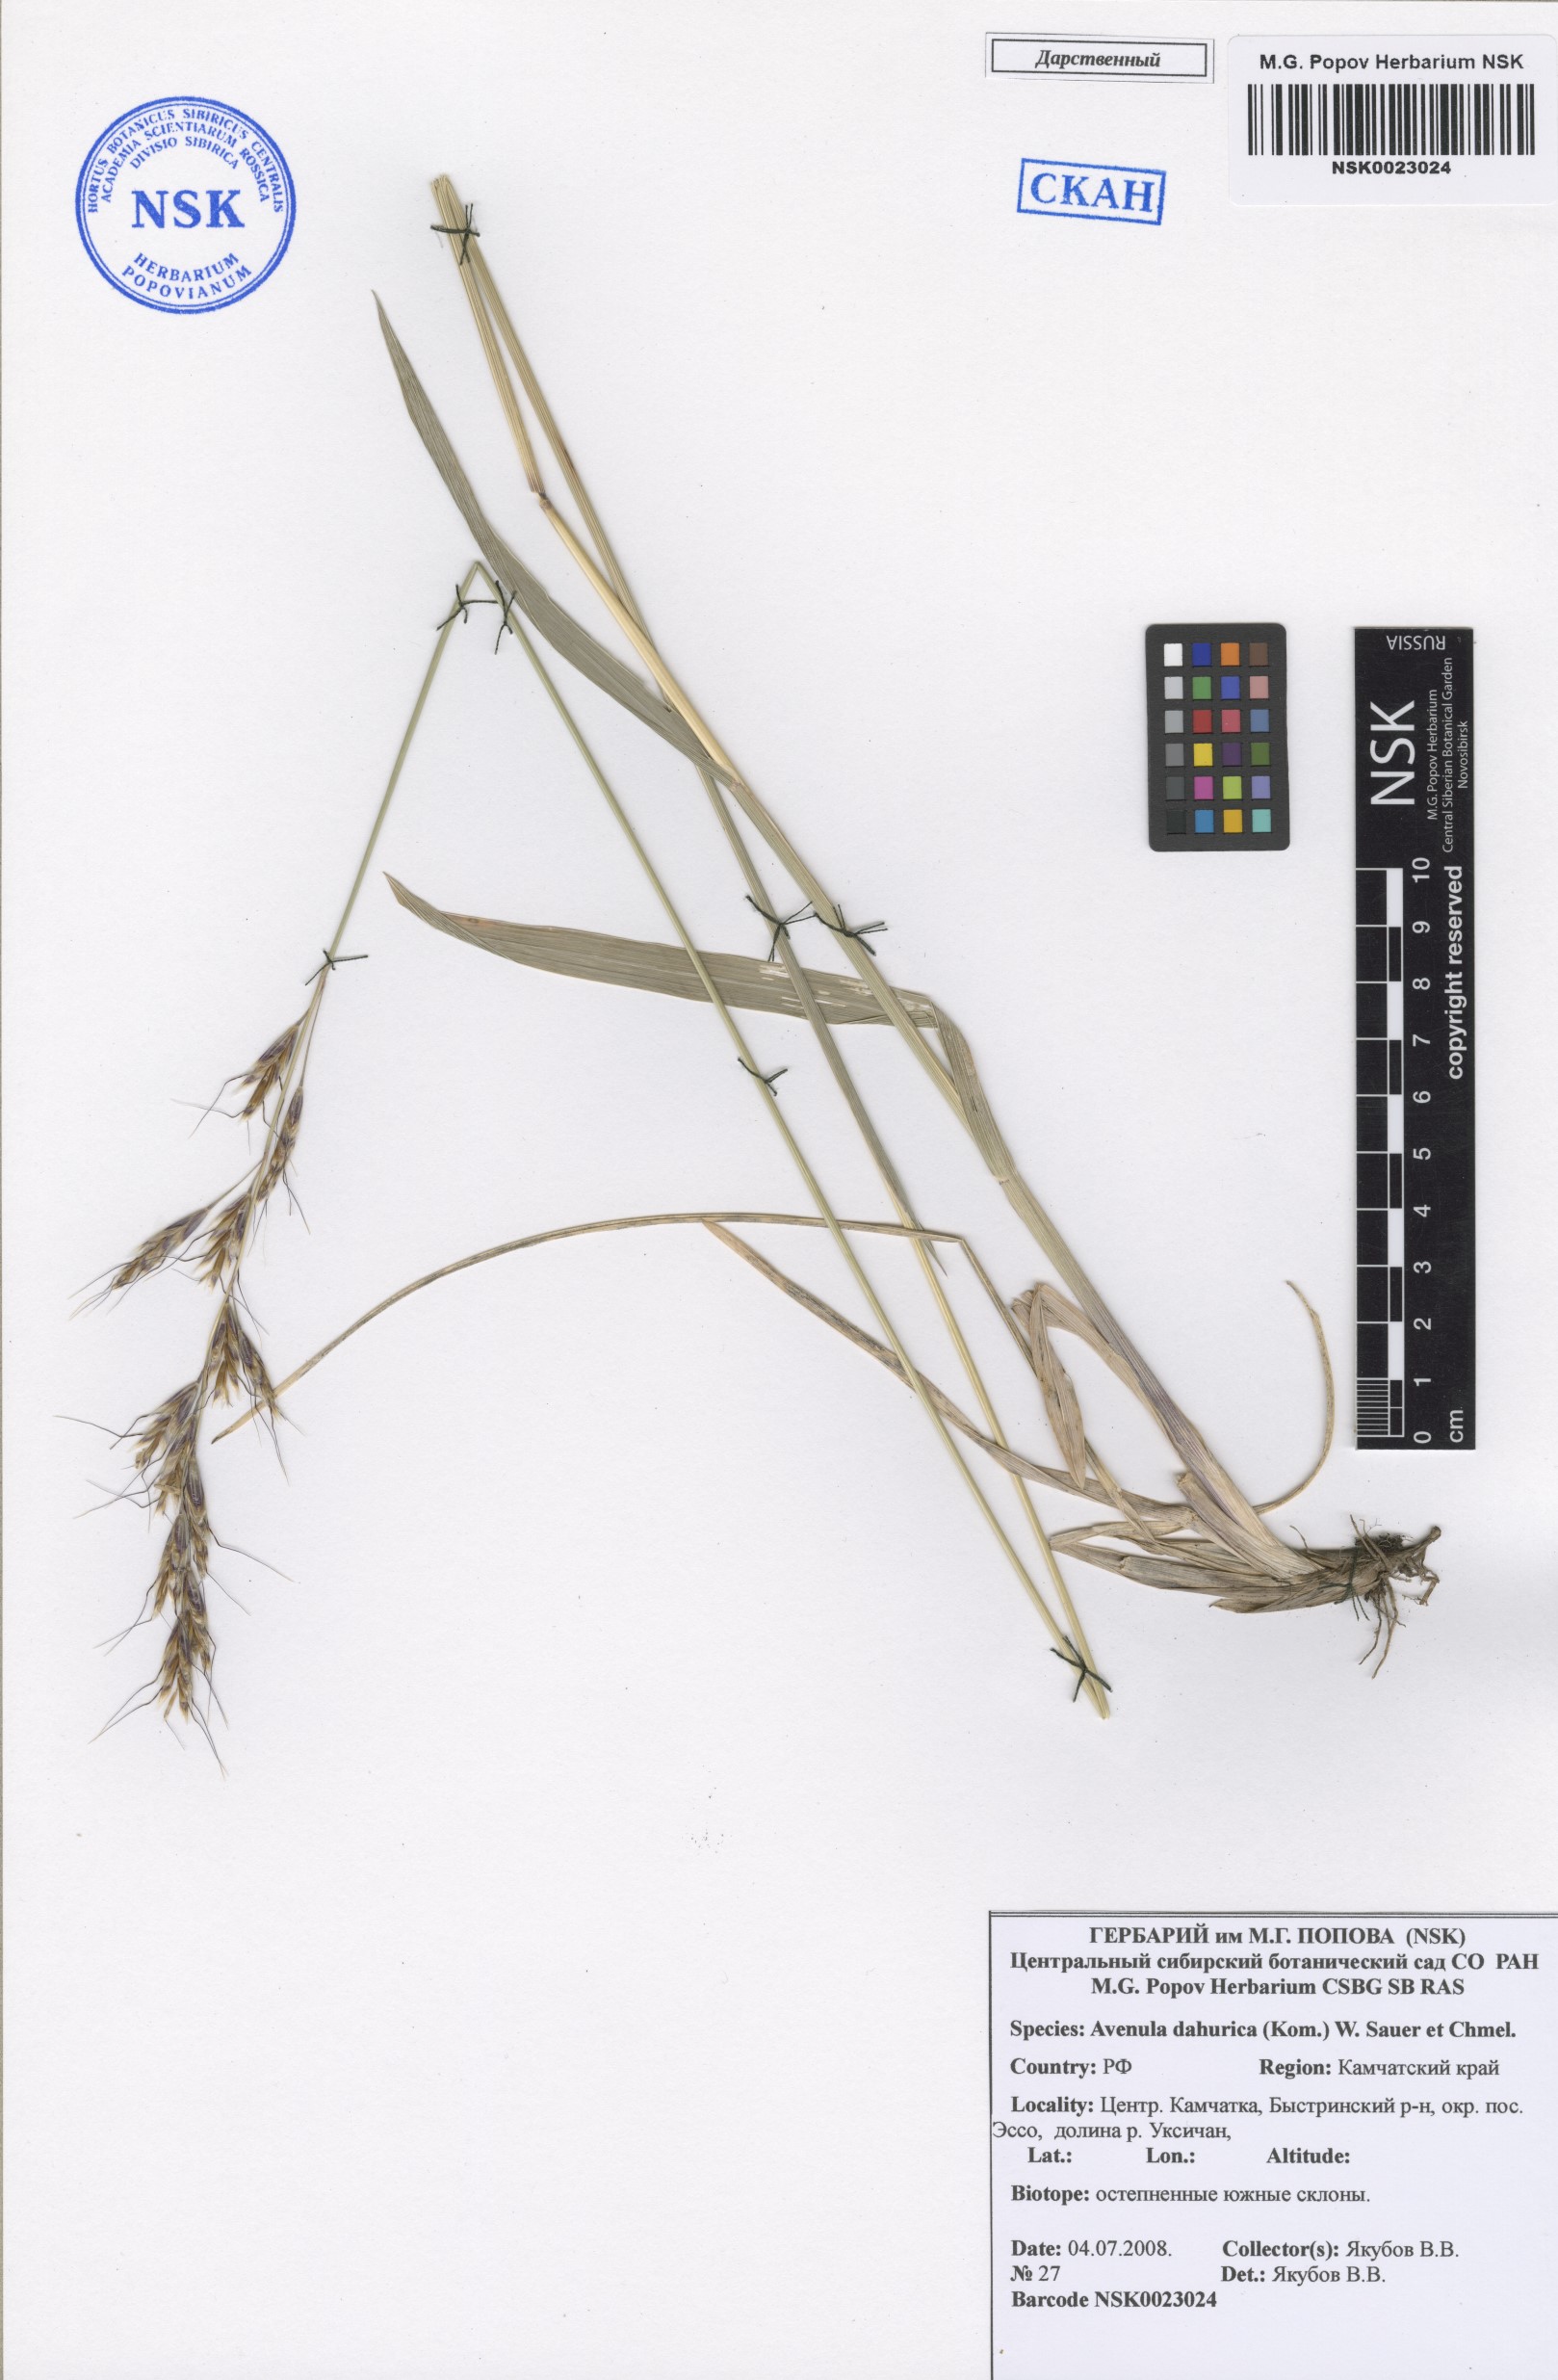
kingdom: Plantae
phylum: Tracheophyta
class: Liliopsida
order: Poales
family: Poaceae
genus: Helictochloa
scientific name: Helictochloa dahurica
